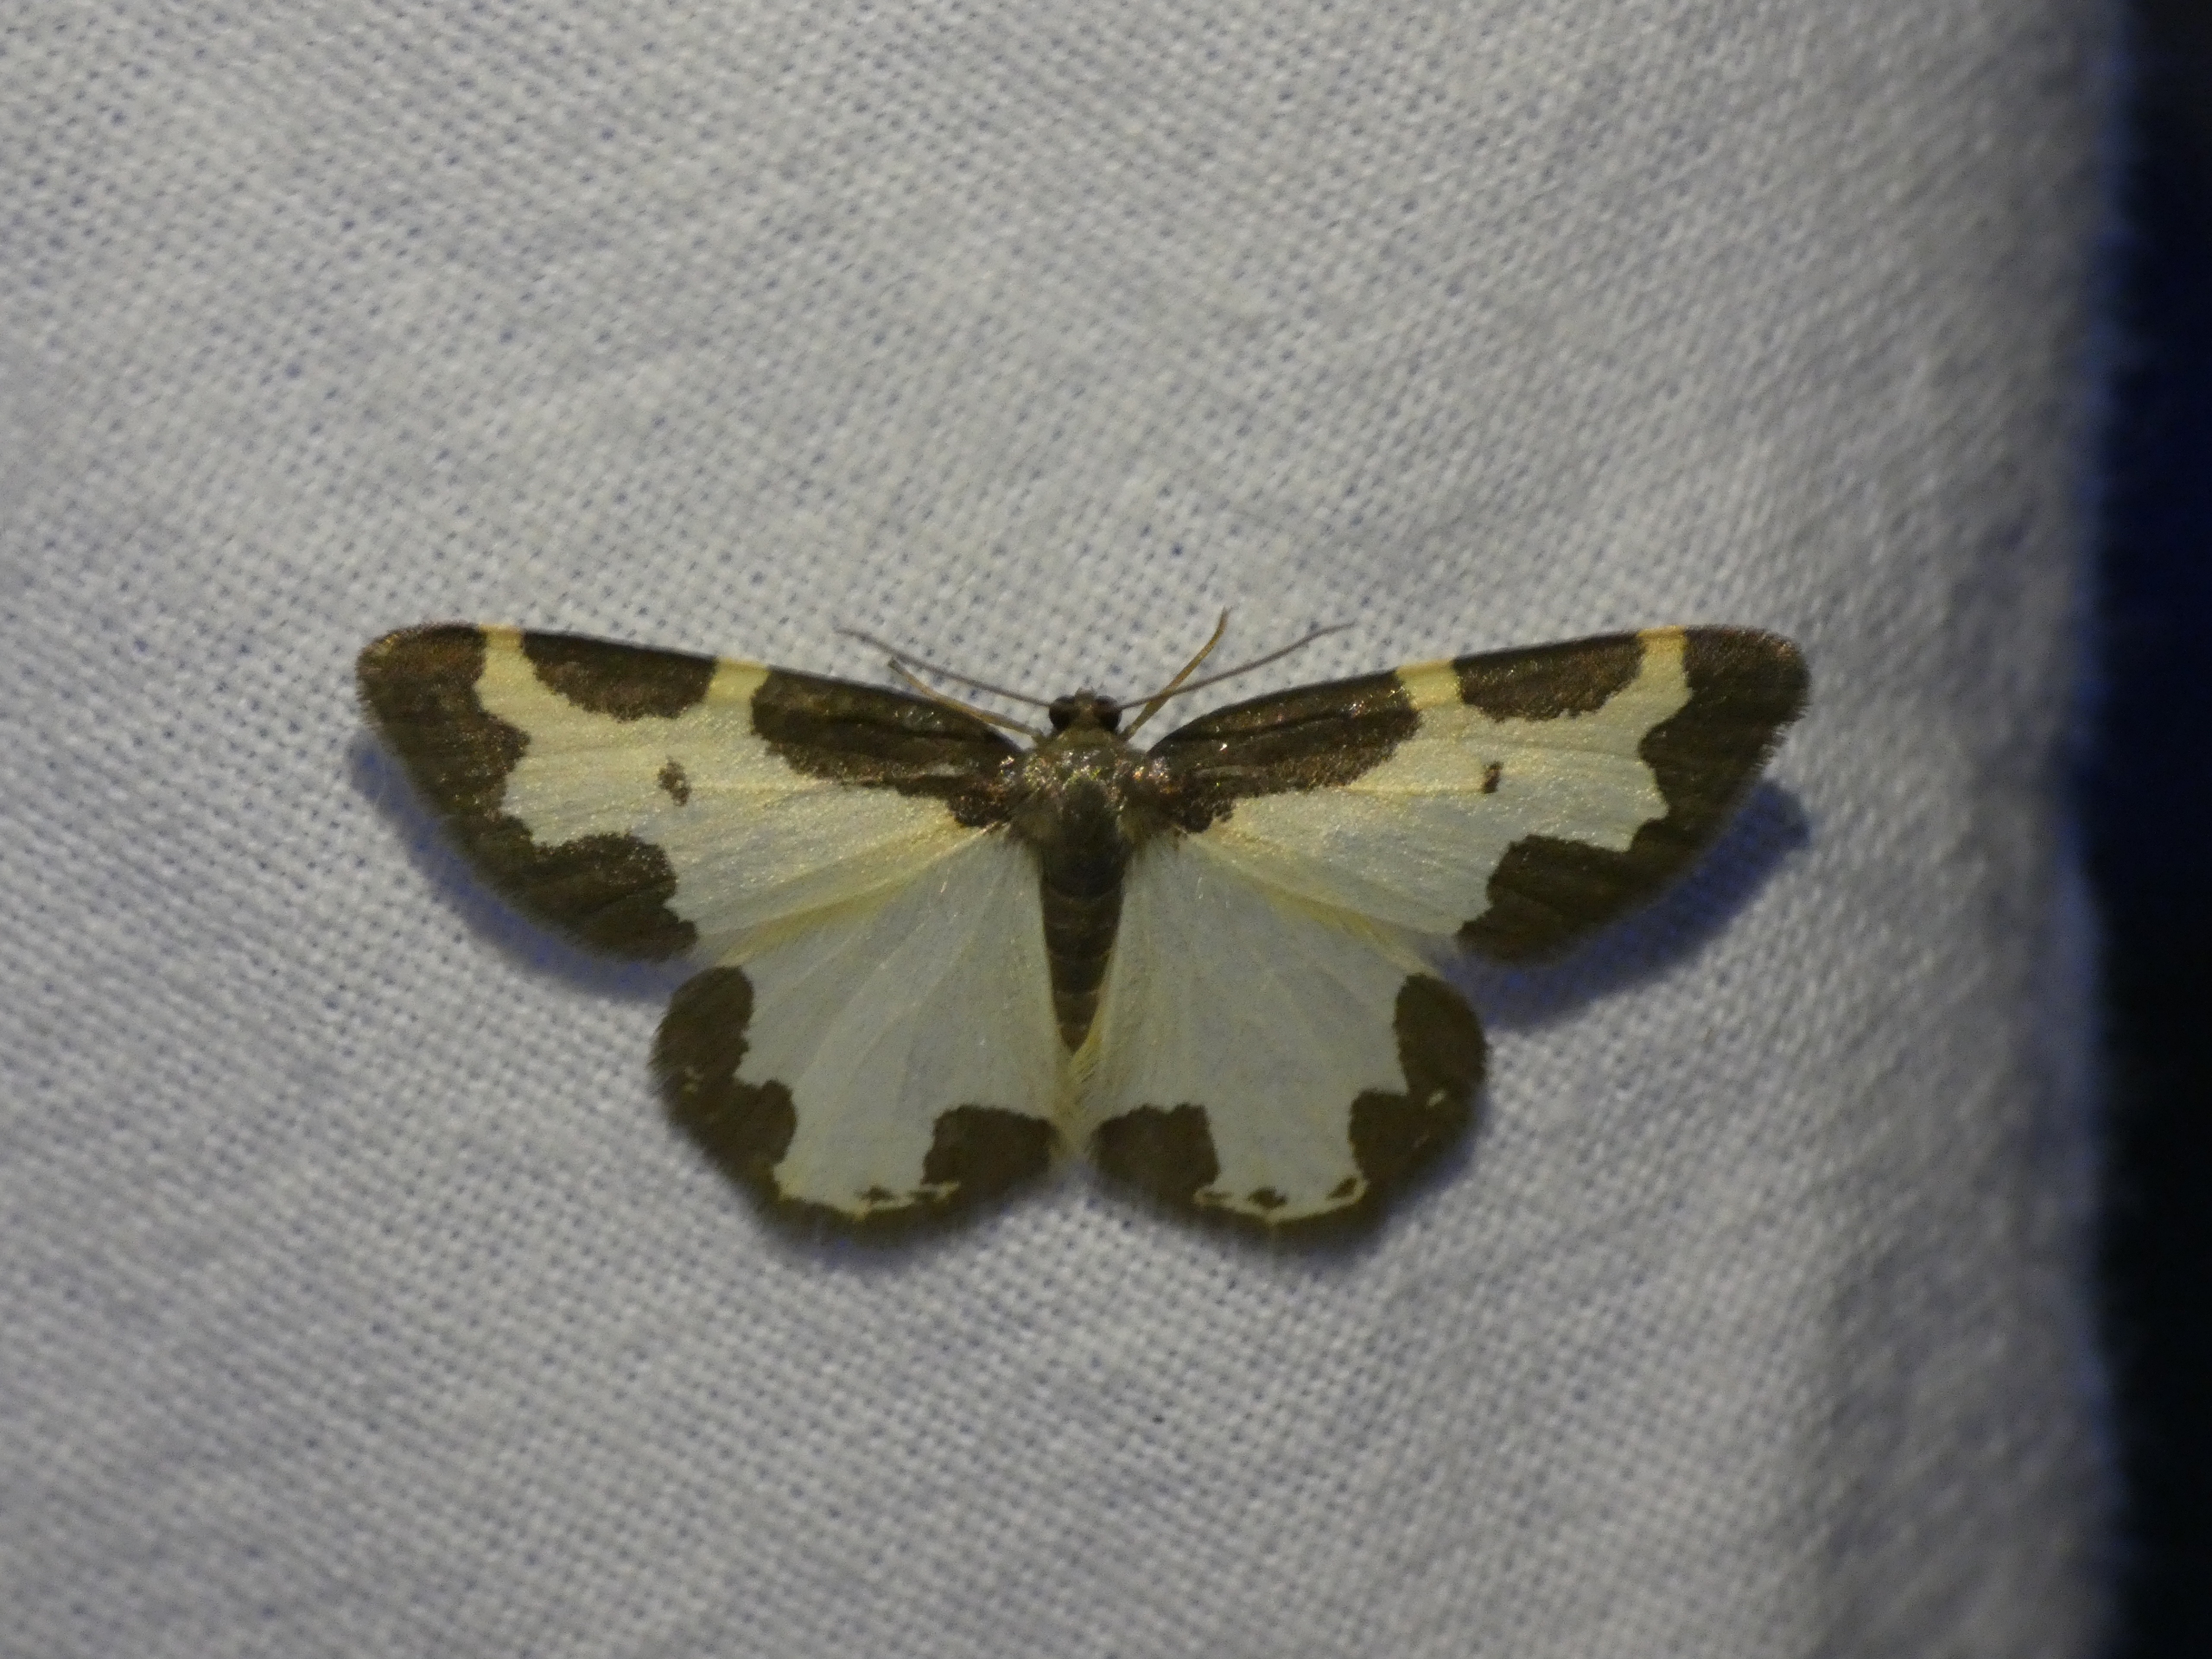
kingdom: Animalia
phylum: Arthropoda
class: Insecta
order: Lepidoptera
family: Geometridae
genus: Lomaspilis
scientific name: Lomaspilis marginata
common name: Sortrandet måler
